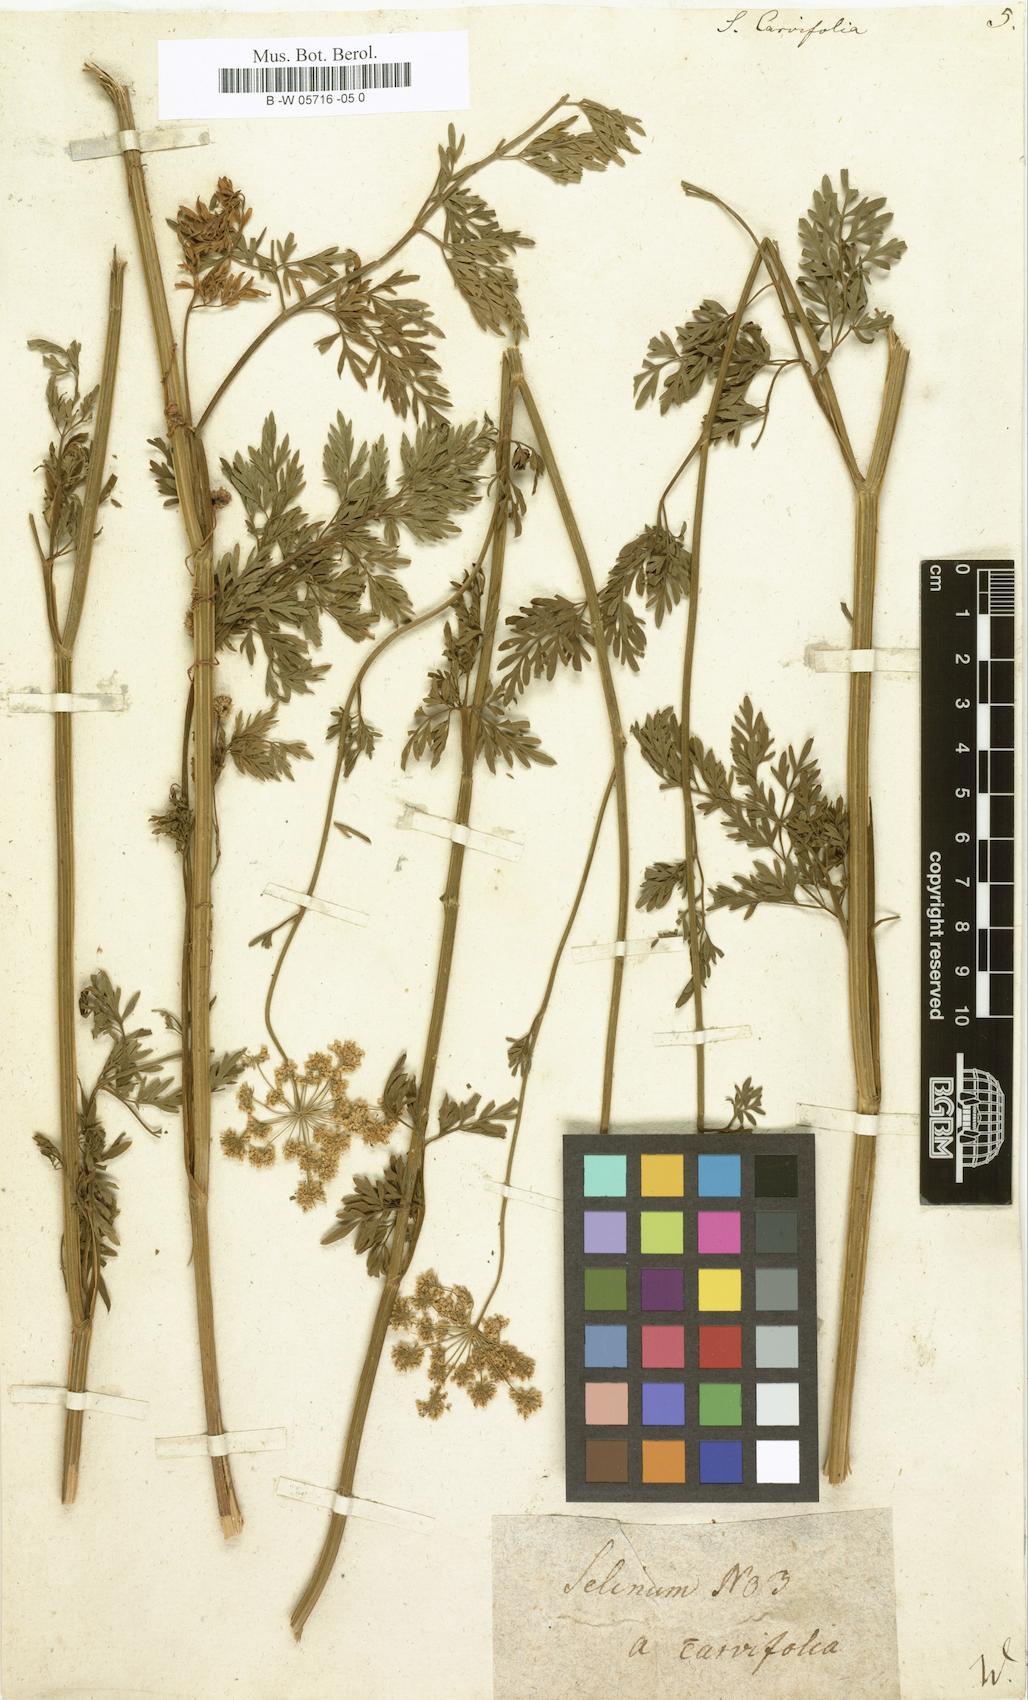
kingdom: Plantae
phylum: Tracheophyta
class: Magnoliopsida
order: Apiales
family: Apiaceae
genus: Selinum
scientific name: Selinum carvifolia
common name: Cambridge milk-parsley
